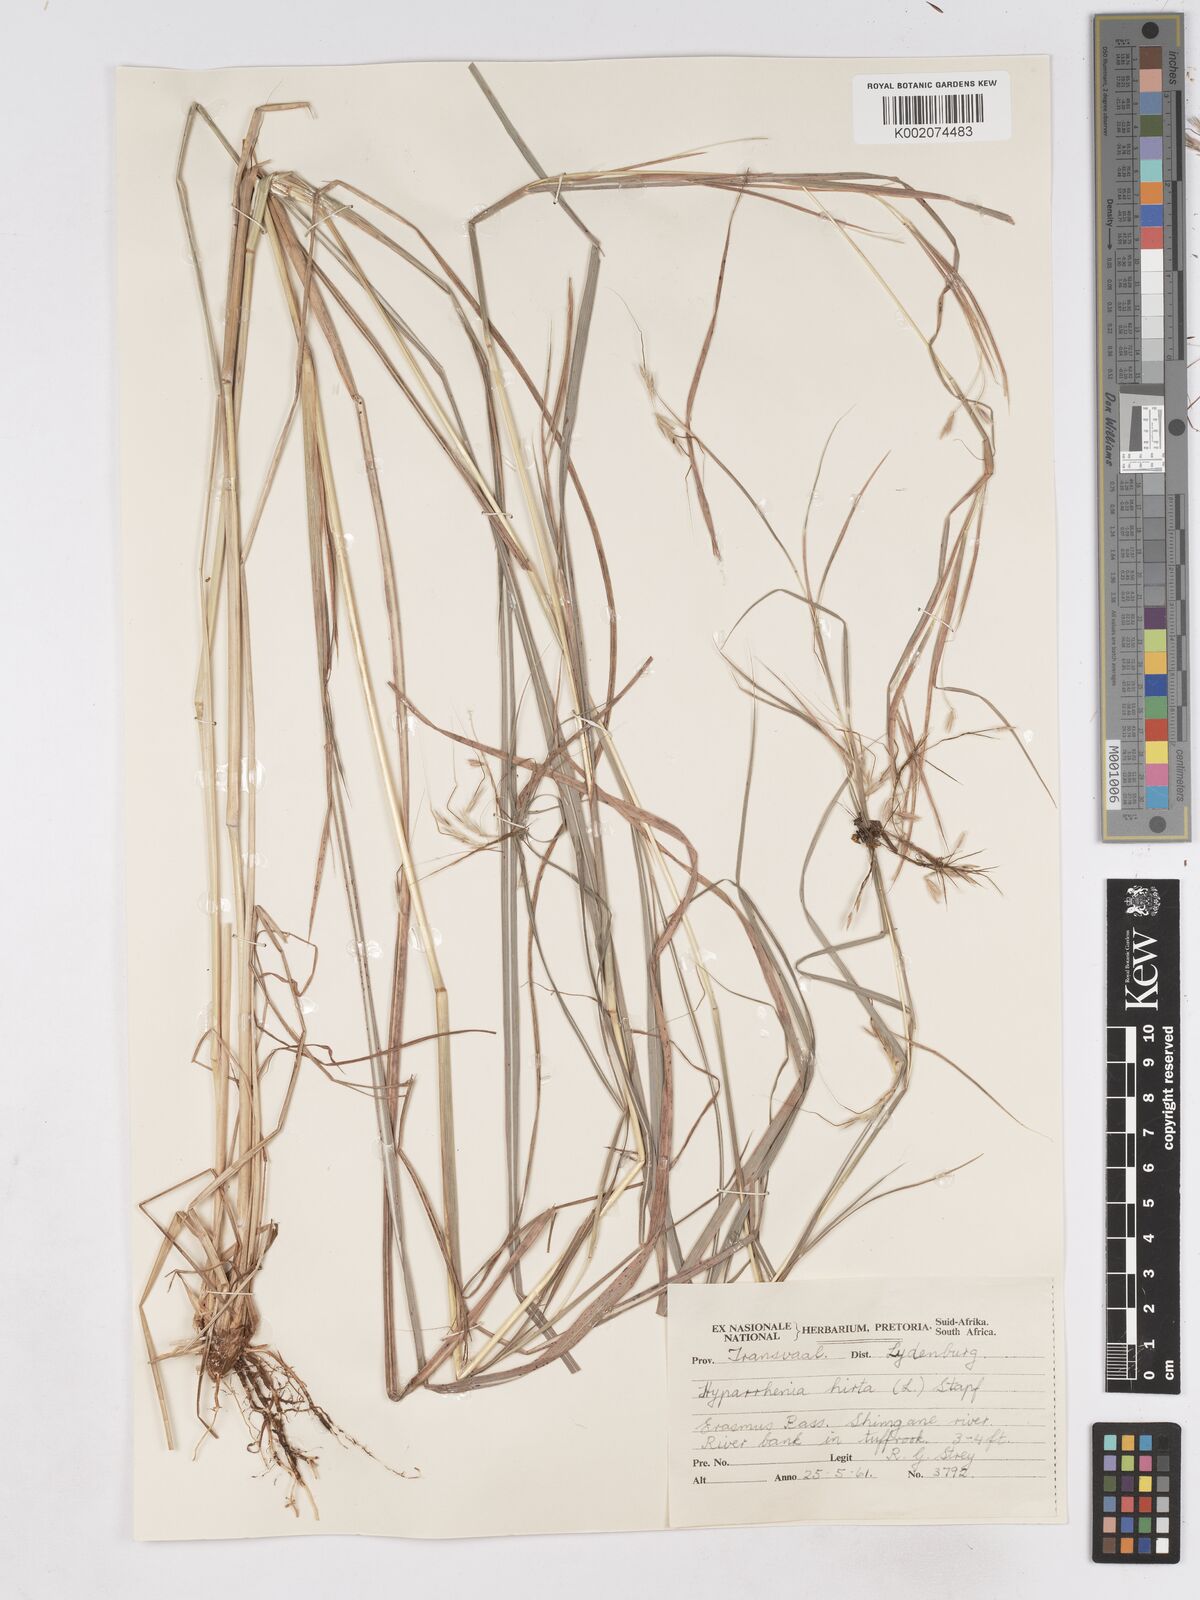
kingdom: Plantae
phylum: Tracheophyta
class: Liliopsida
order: Poales
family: Poaceae
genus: Hyparrhenia
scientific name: Hyparrhenia hirta
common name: Thatching grass
